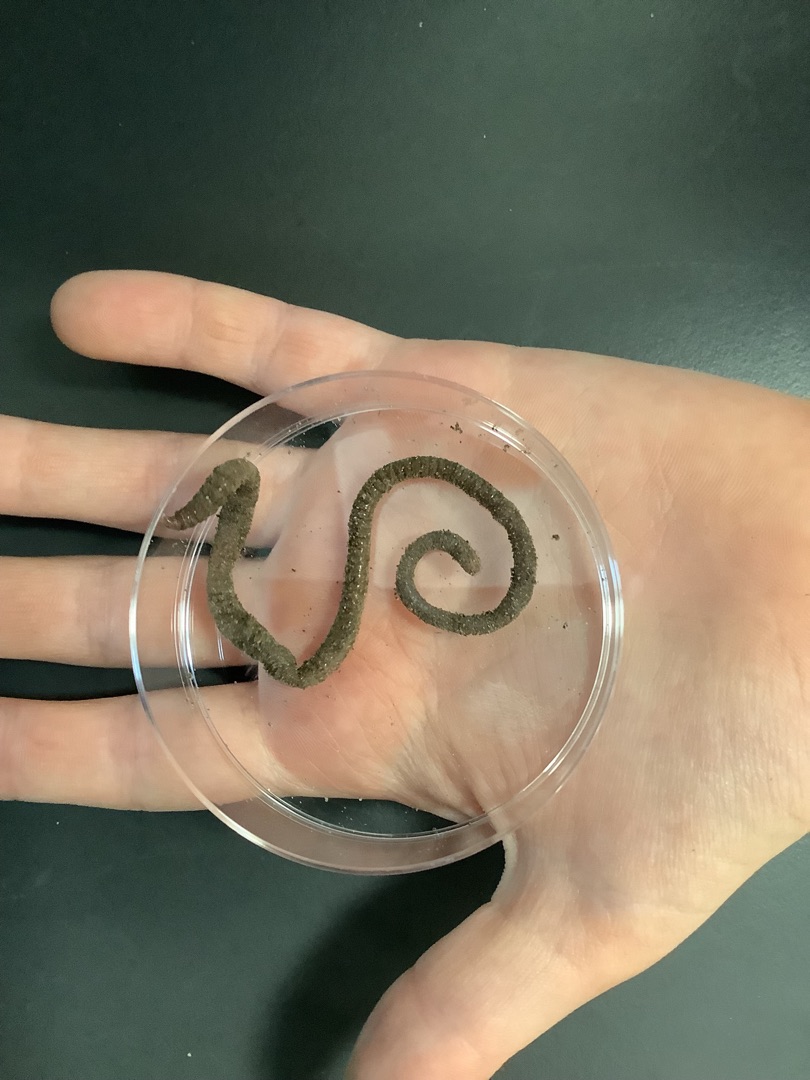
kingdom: Animalia
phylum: Annelida
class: Clitellata
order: Crassiclitellata
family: Lumbricidae
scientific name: Lumbricidae
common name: Regnorme
